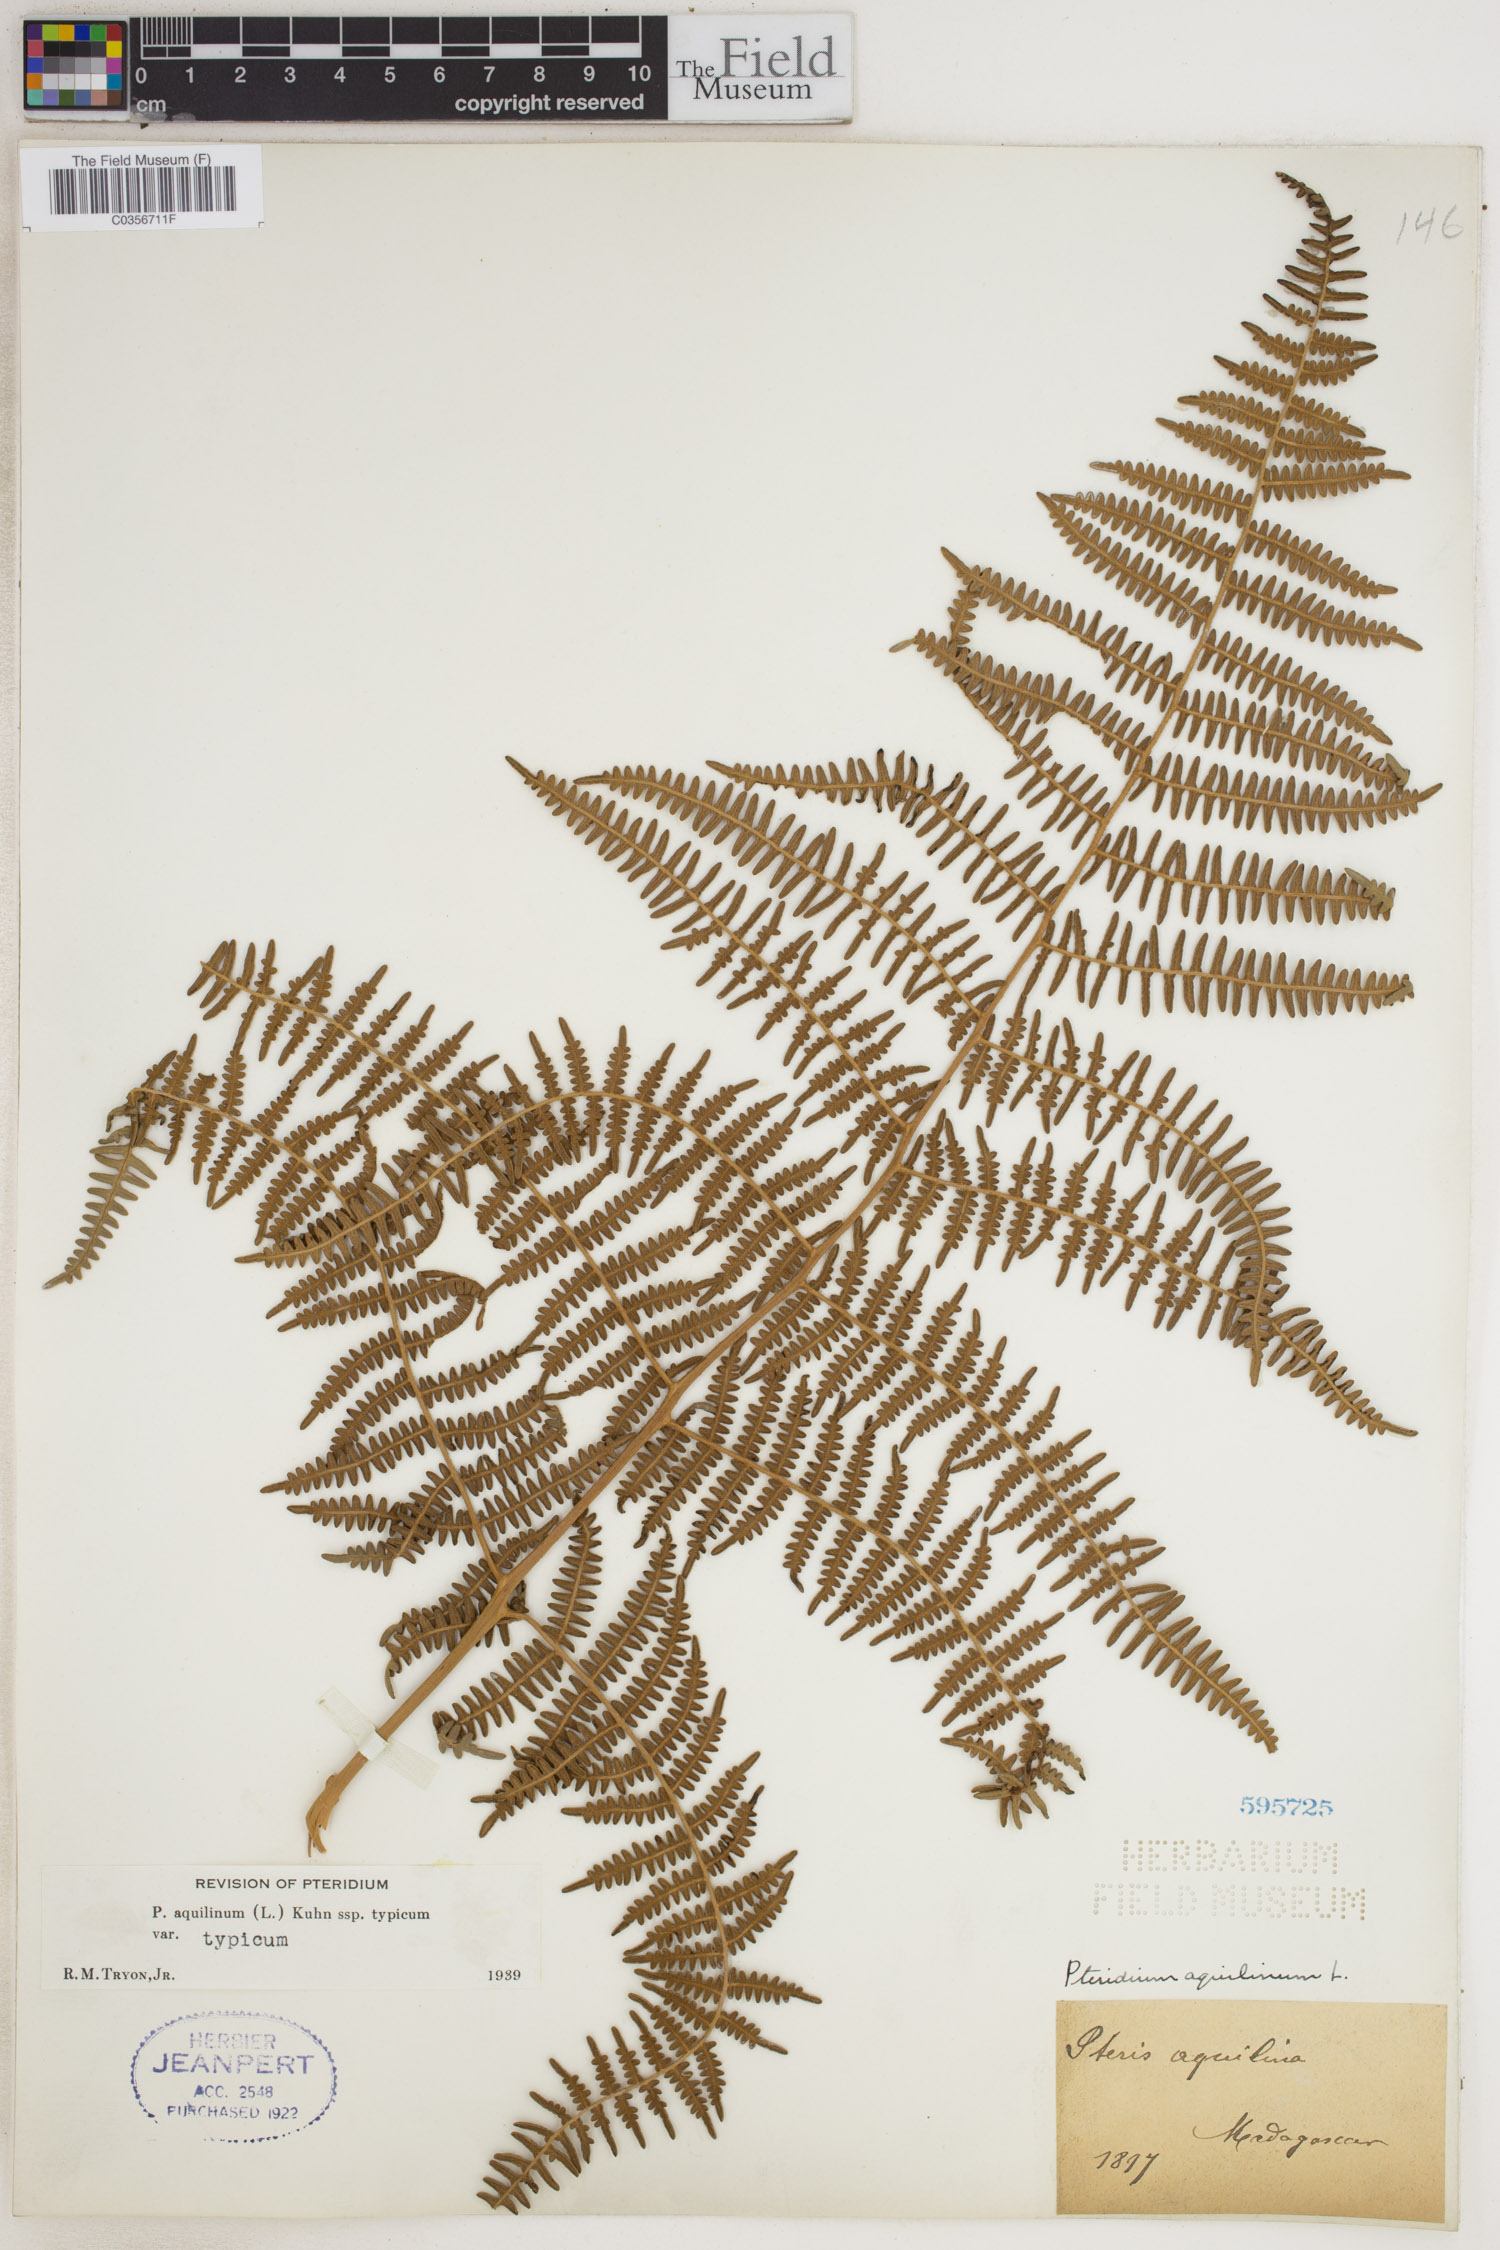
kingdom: Plantae
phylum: Tracheophyta
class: Polypodiopsida
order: Polypodiales
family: Dennstaedtiaceae
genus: Pteridium
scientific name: Pteridium aquilinum
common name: Bracken
